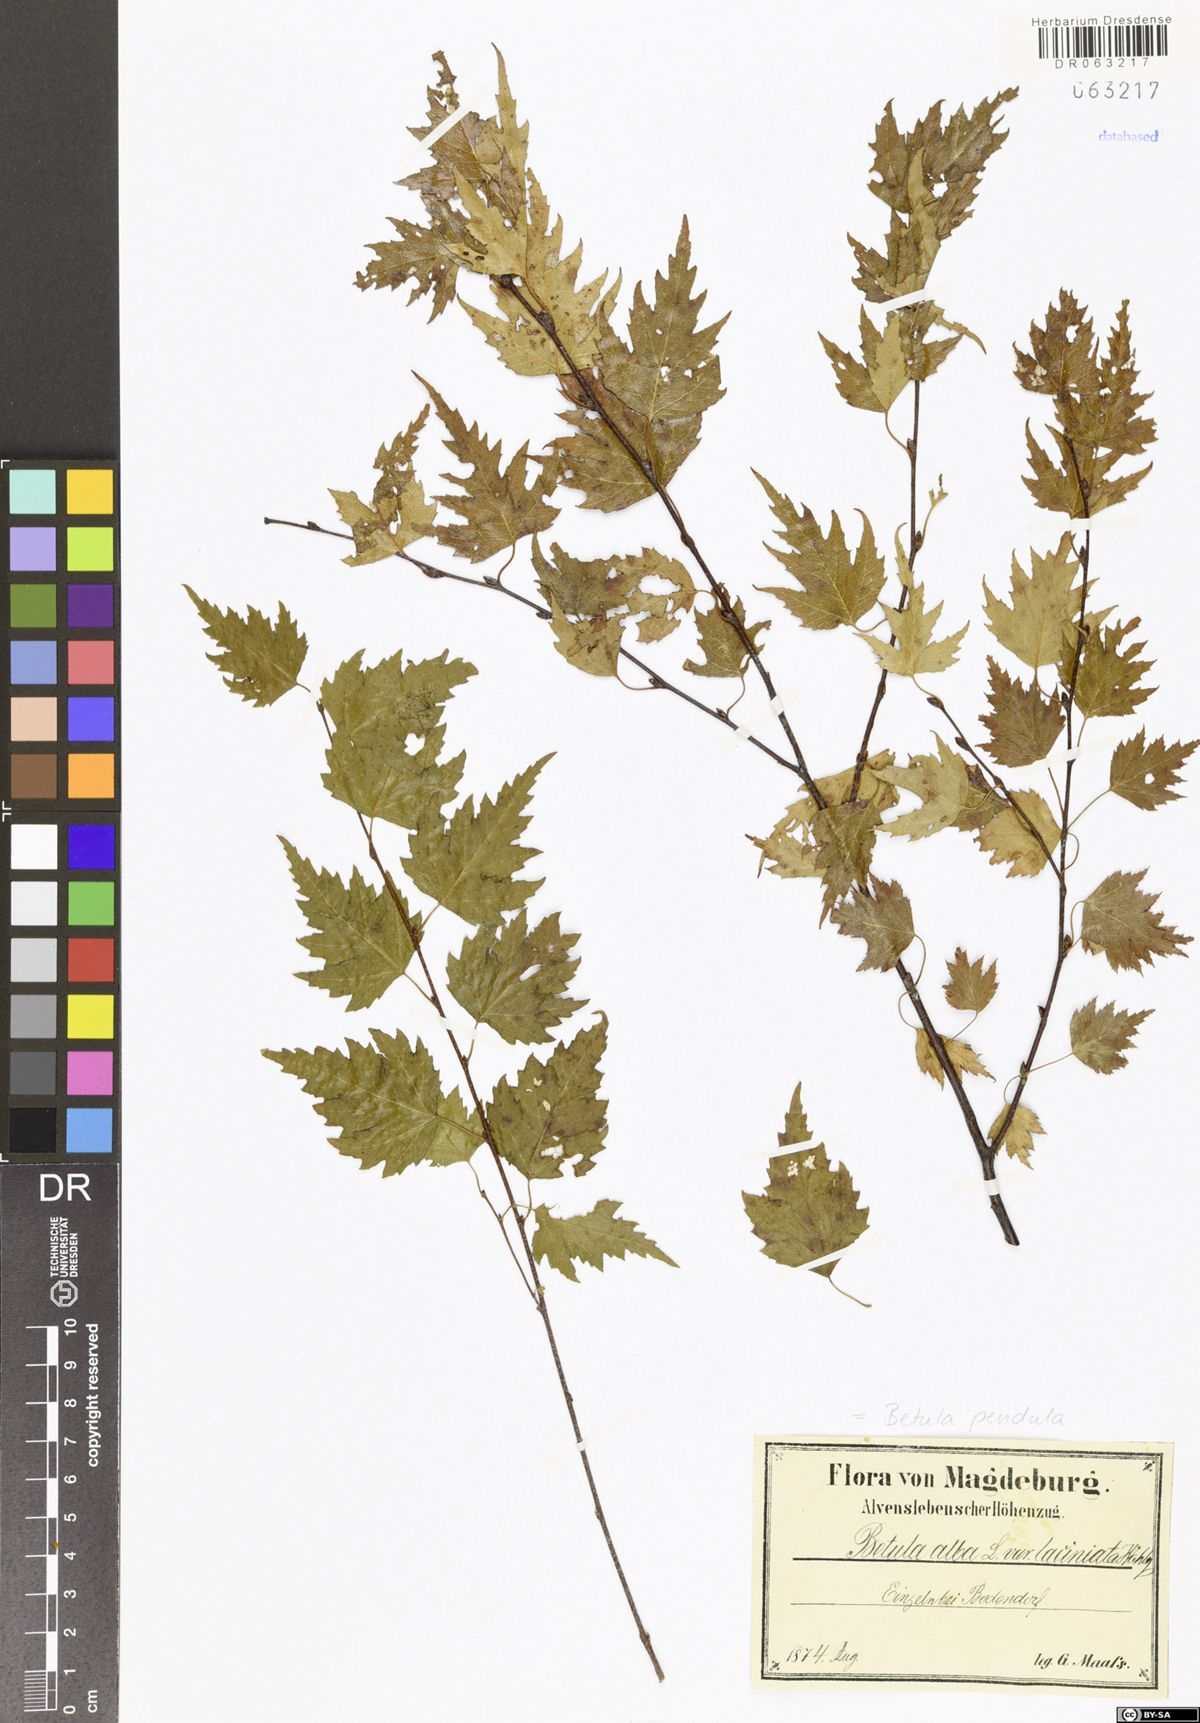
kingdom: Plantae
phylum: Tracheophyta
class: Magnoliopsida
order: Fagales
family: Betulaceae
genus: Betula
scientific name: Betula pendula
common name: Silver birch
